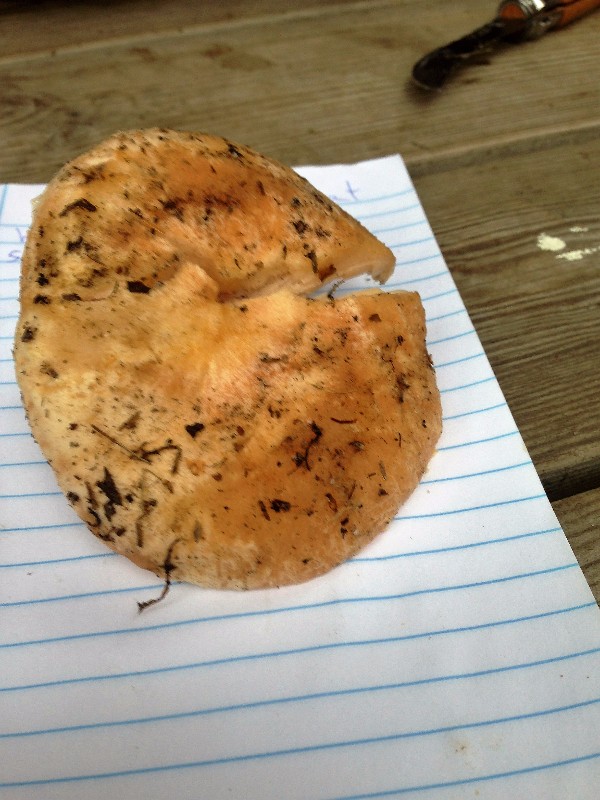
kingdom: Fungi
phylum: Basidiomycota
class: Agaricomycetes
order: Russulales
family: Russulaceae
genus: Lactarius
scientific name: Lactarius pubescens
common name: dunet mælkehat
